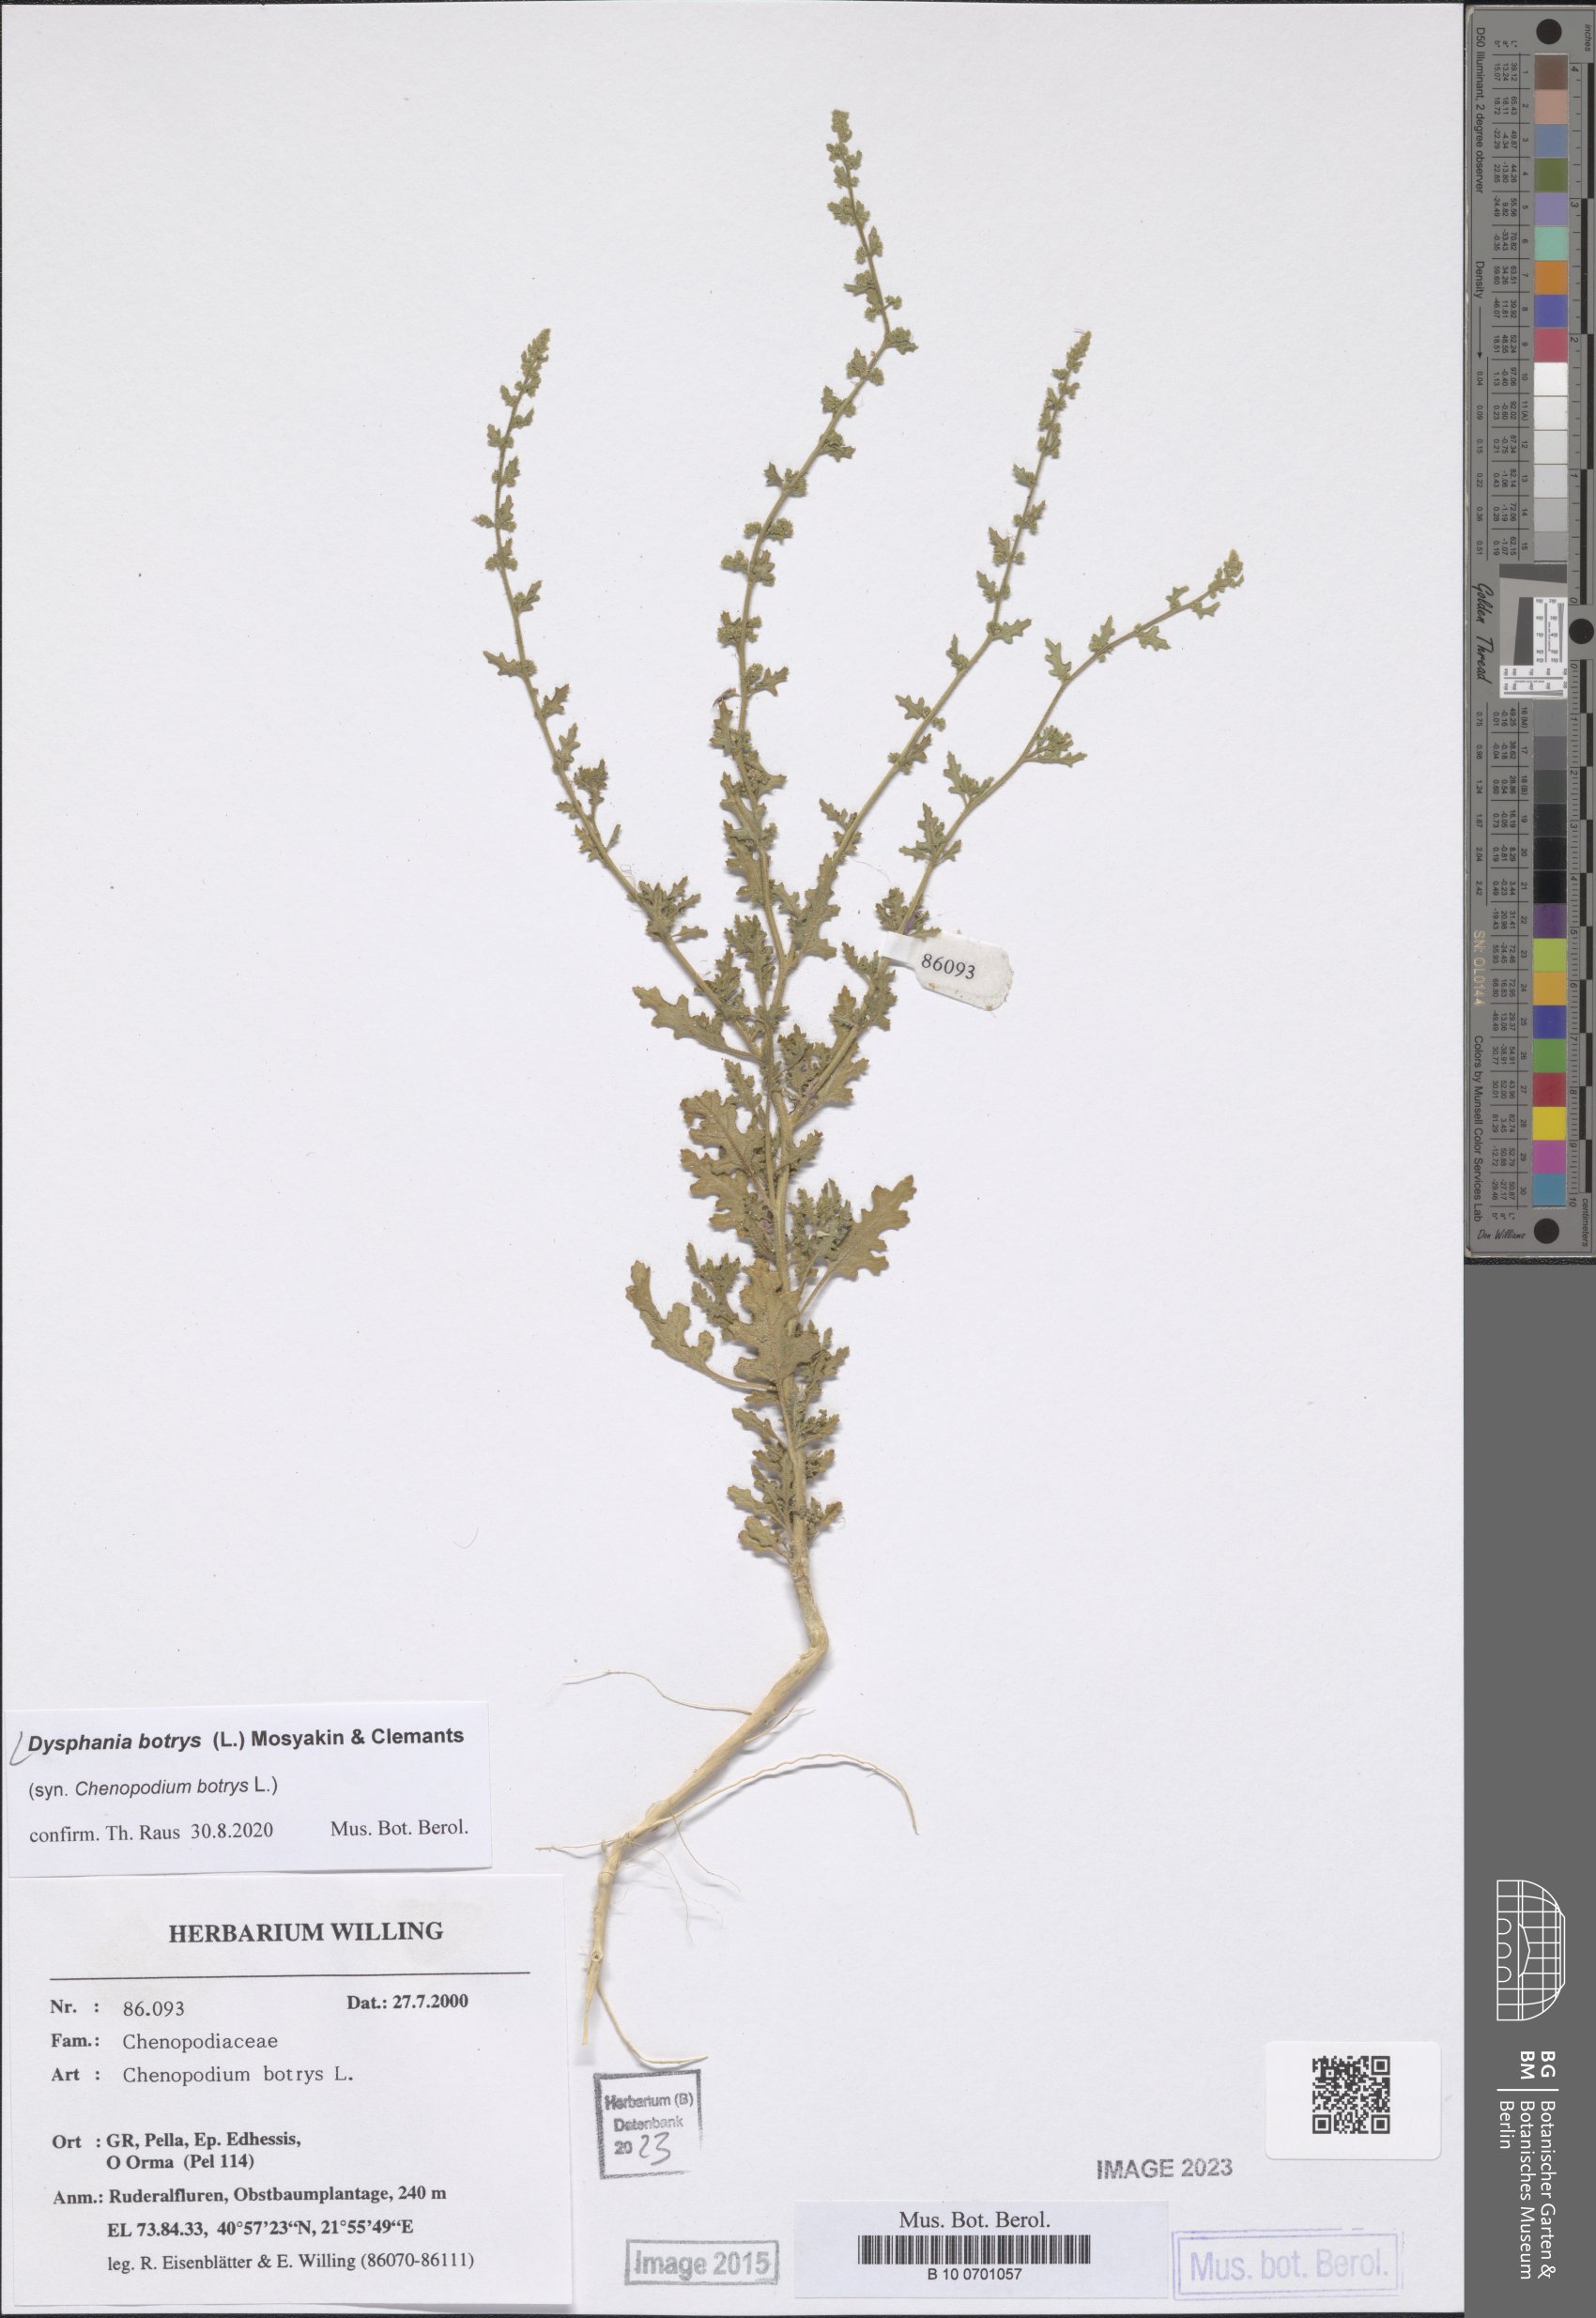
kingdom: Plantae
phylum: Tracheophyta
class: Magnoliopsida
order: Caryophyllales
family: Amaranthaceae
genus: Dysphania
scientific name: Dysphania botrys
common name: Feather-geranium
